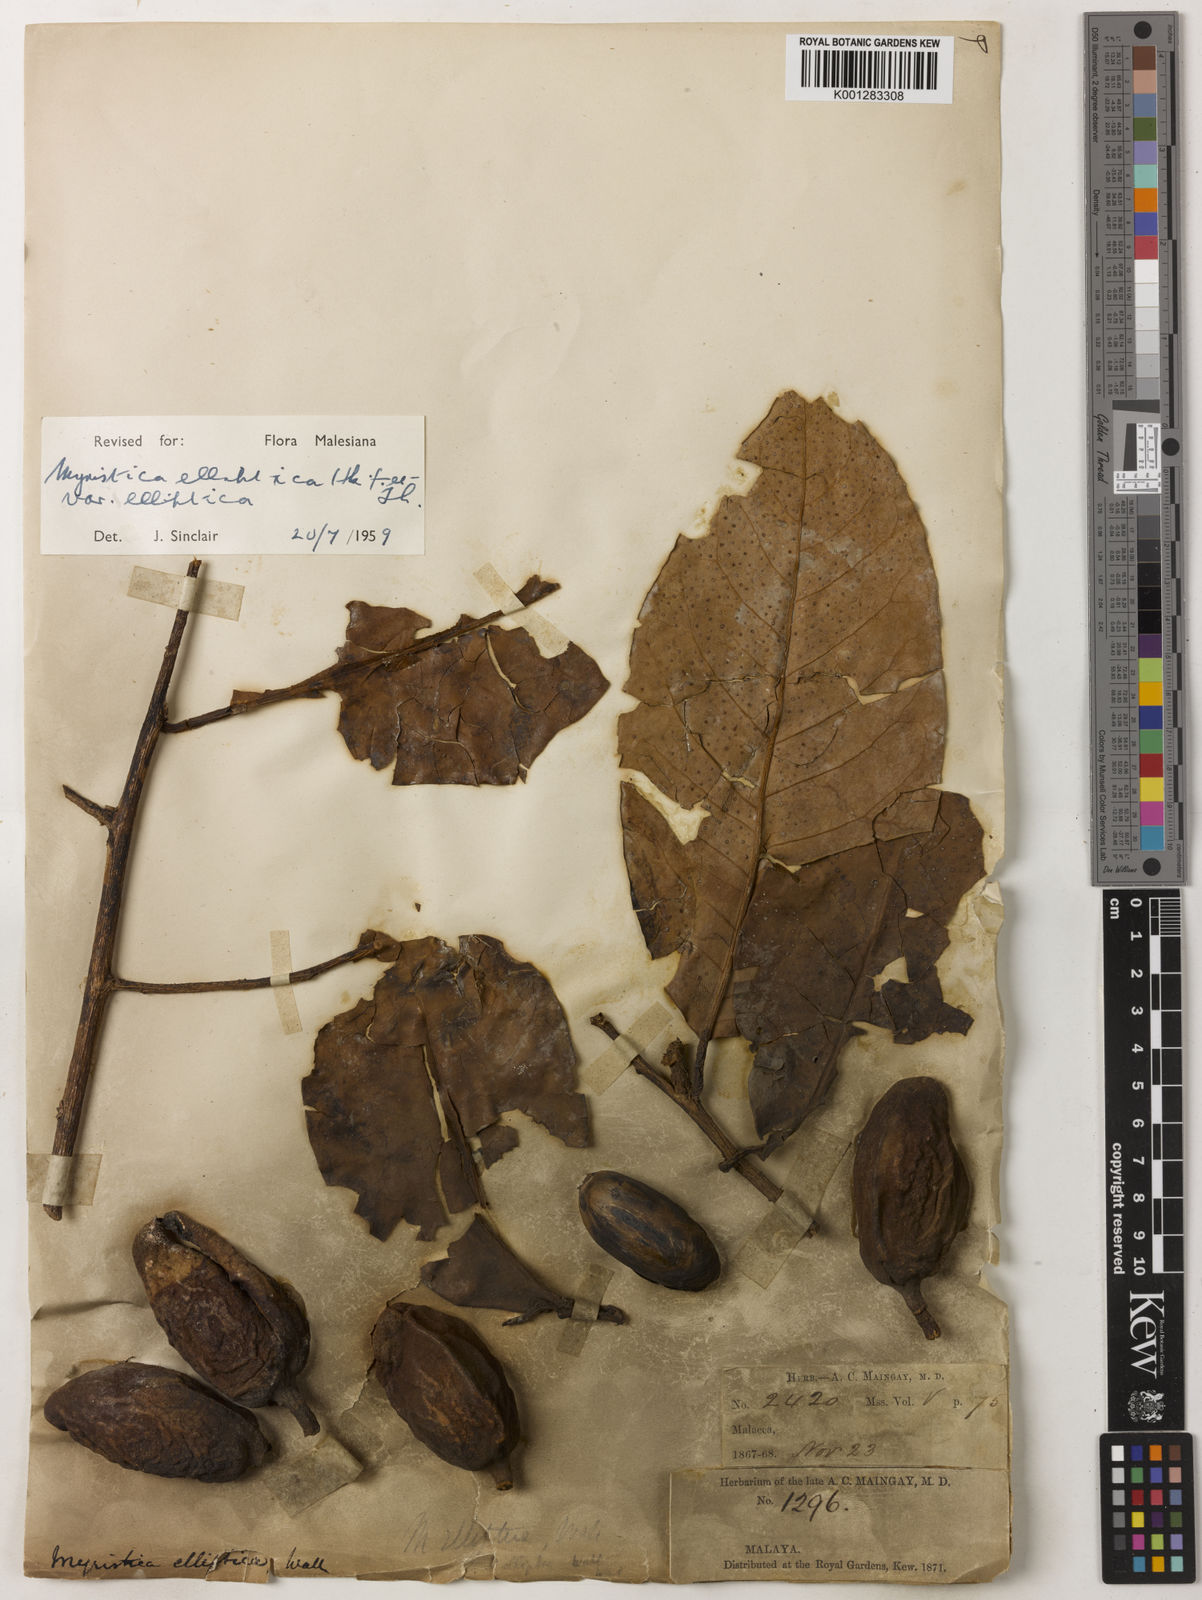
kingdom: Plantae
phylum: Tracheophyta
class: Magnoliopsida
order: Magnoliales
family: Myristicaceae
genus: Myristica
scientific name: Myristica elliptica
